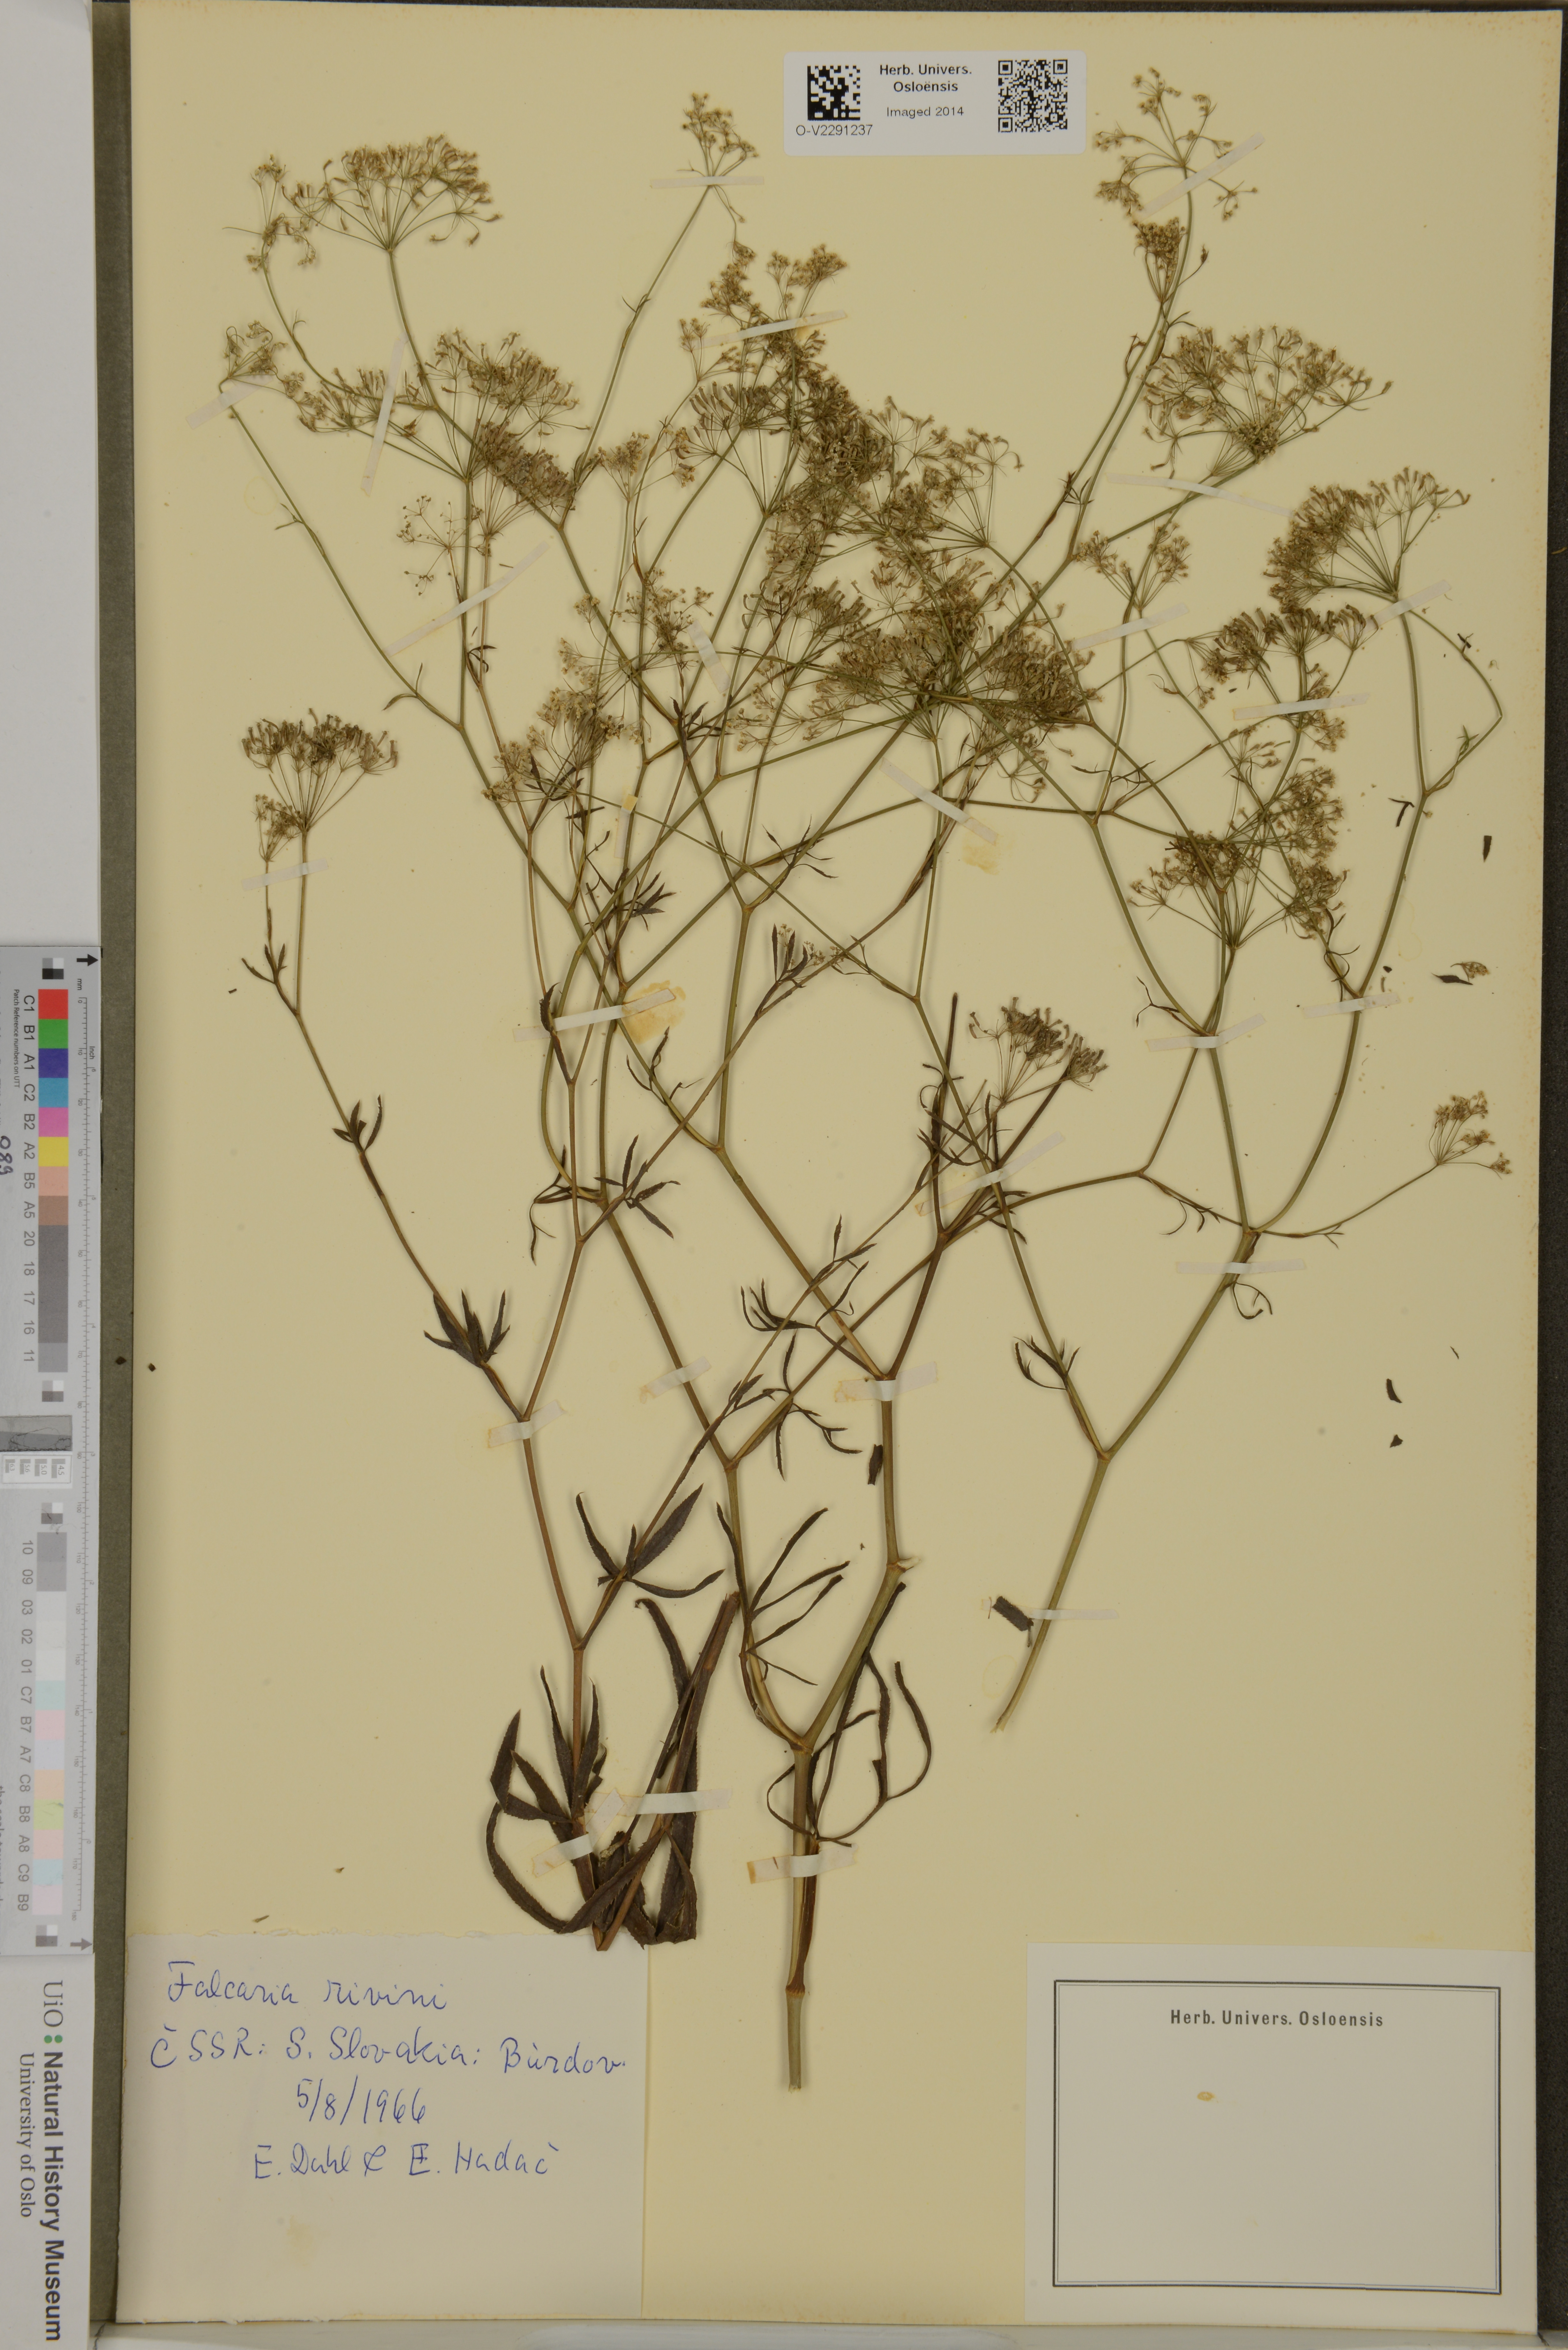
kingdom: Plantae
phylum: Tracheophyta
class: Magnoliopsida
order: Apiales
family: Apiaceae
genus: Falcaria
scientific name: Falcaria vulgaris
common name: Longleaf
